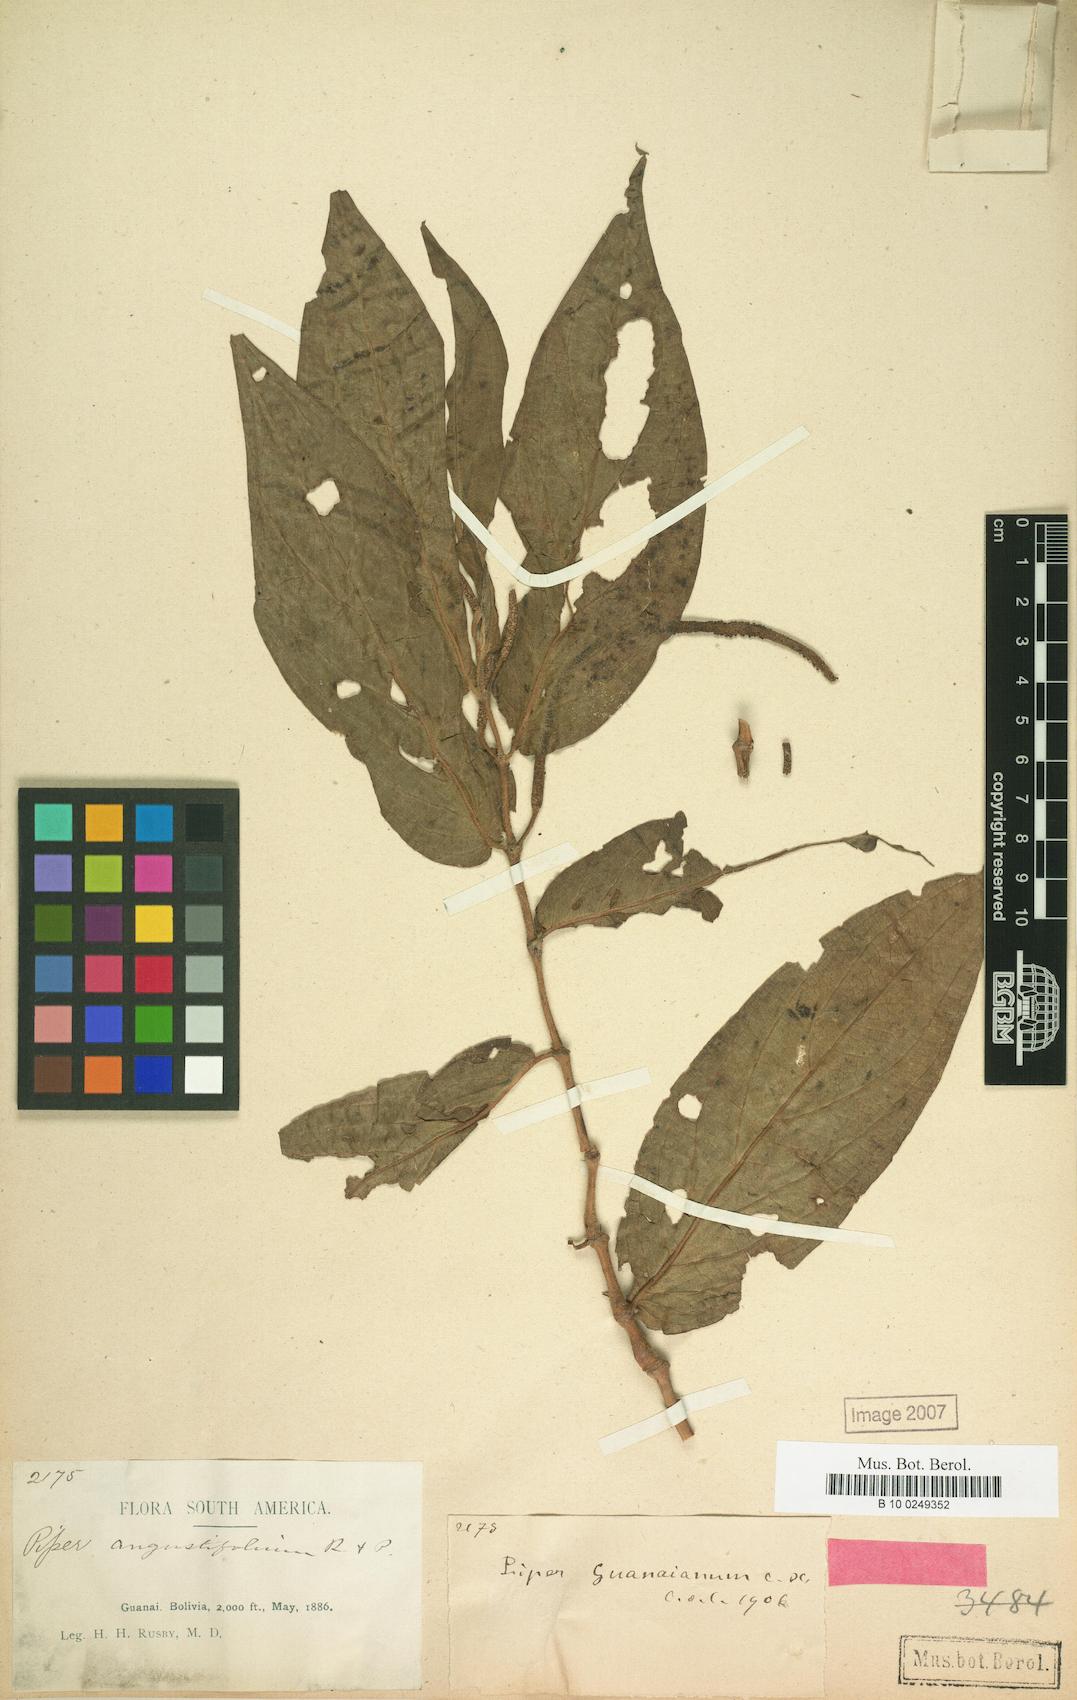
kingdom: Plantae
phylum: Tracheophyta
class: Magnoliopsida
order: Piperales
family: Piperaceae
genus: Piper
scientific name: Piper aduncum
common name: Spiked pepper
